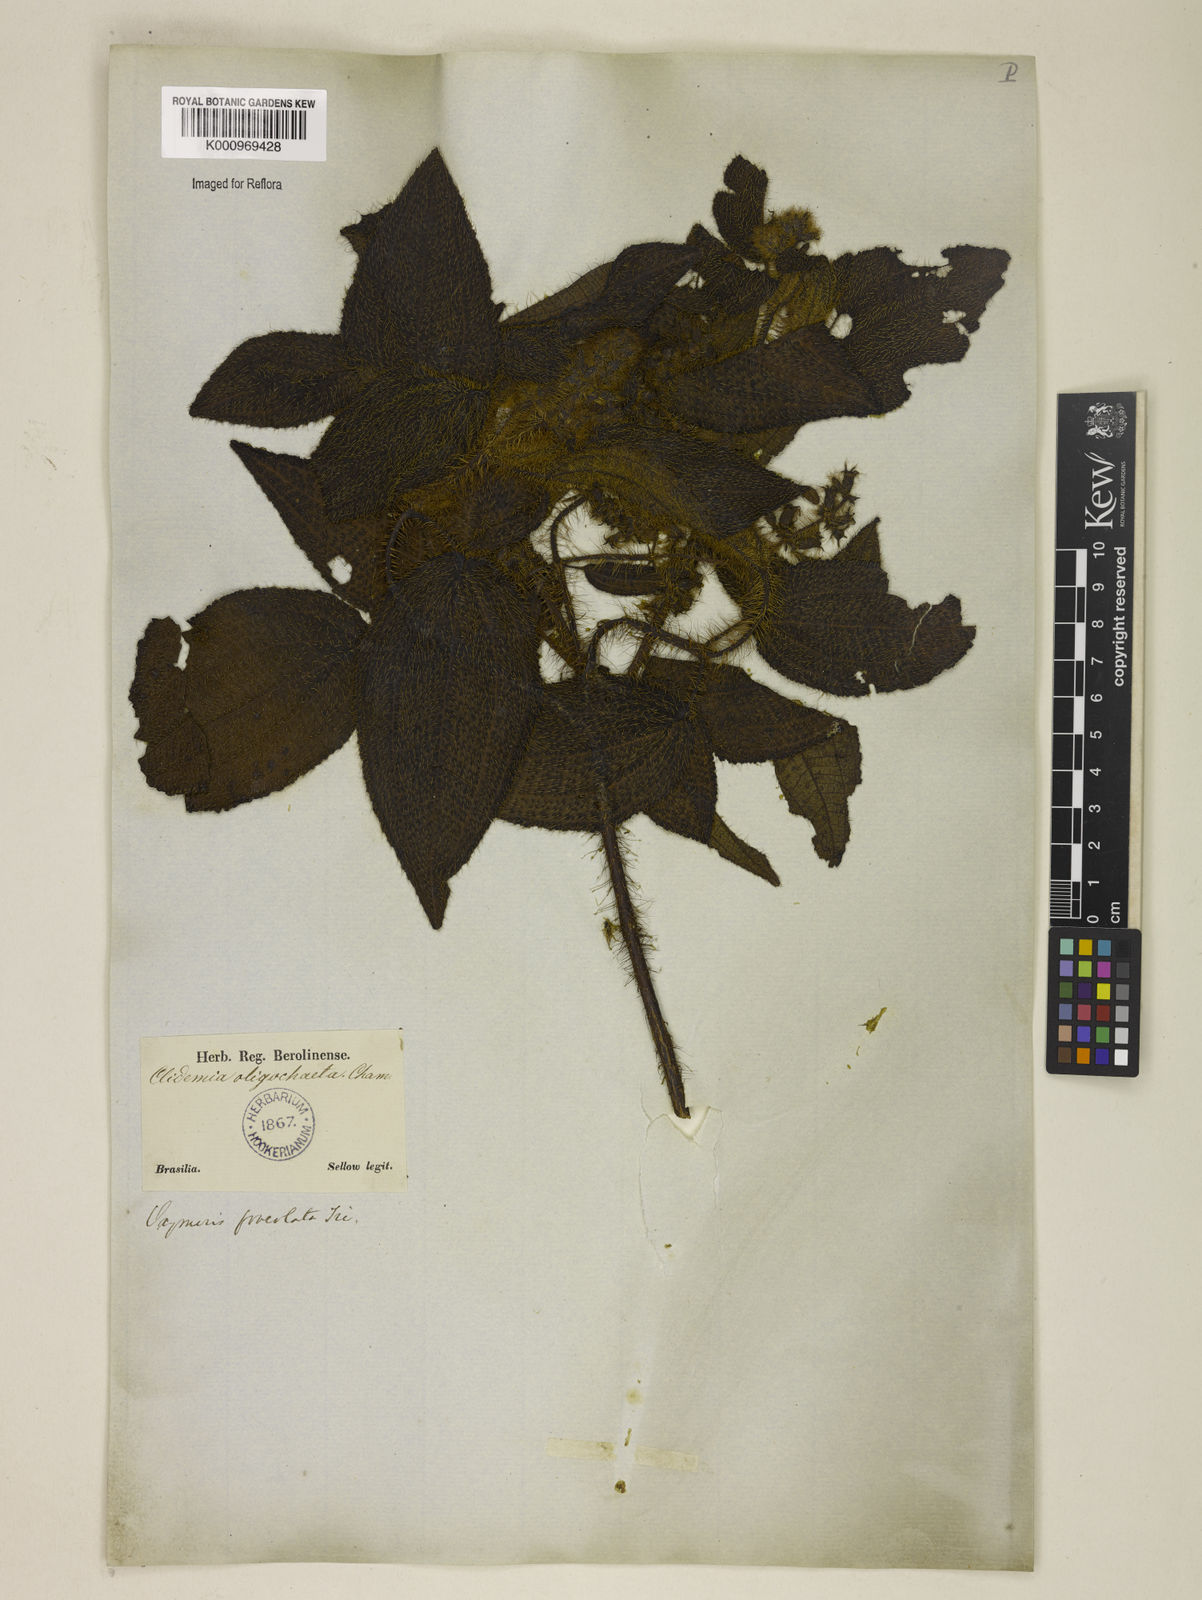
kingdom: Plantae
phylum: Tracheophyta
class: Magnoliopsida
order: Myrtales
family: Melastomataceae
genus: Miconia
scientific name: Miconia leafoveolata
